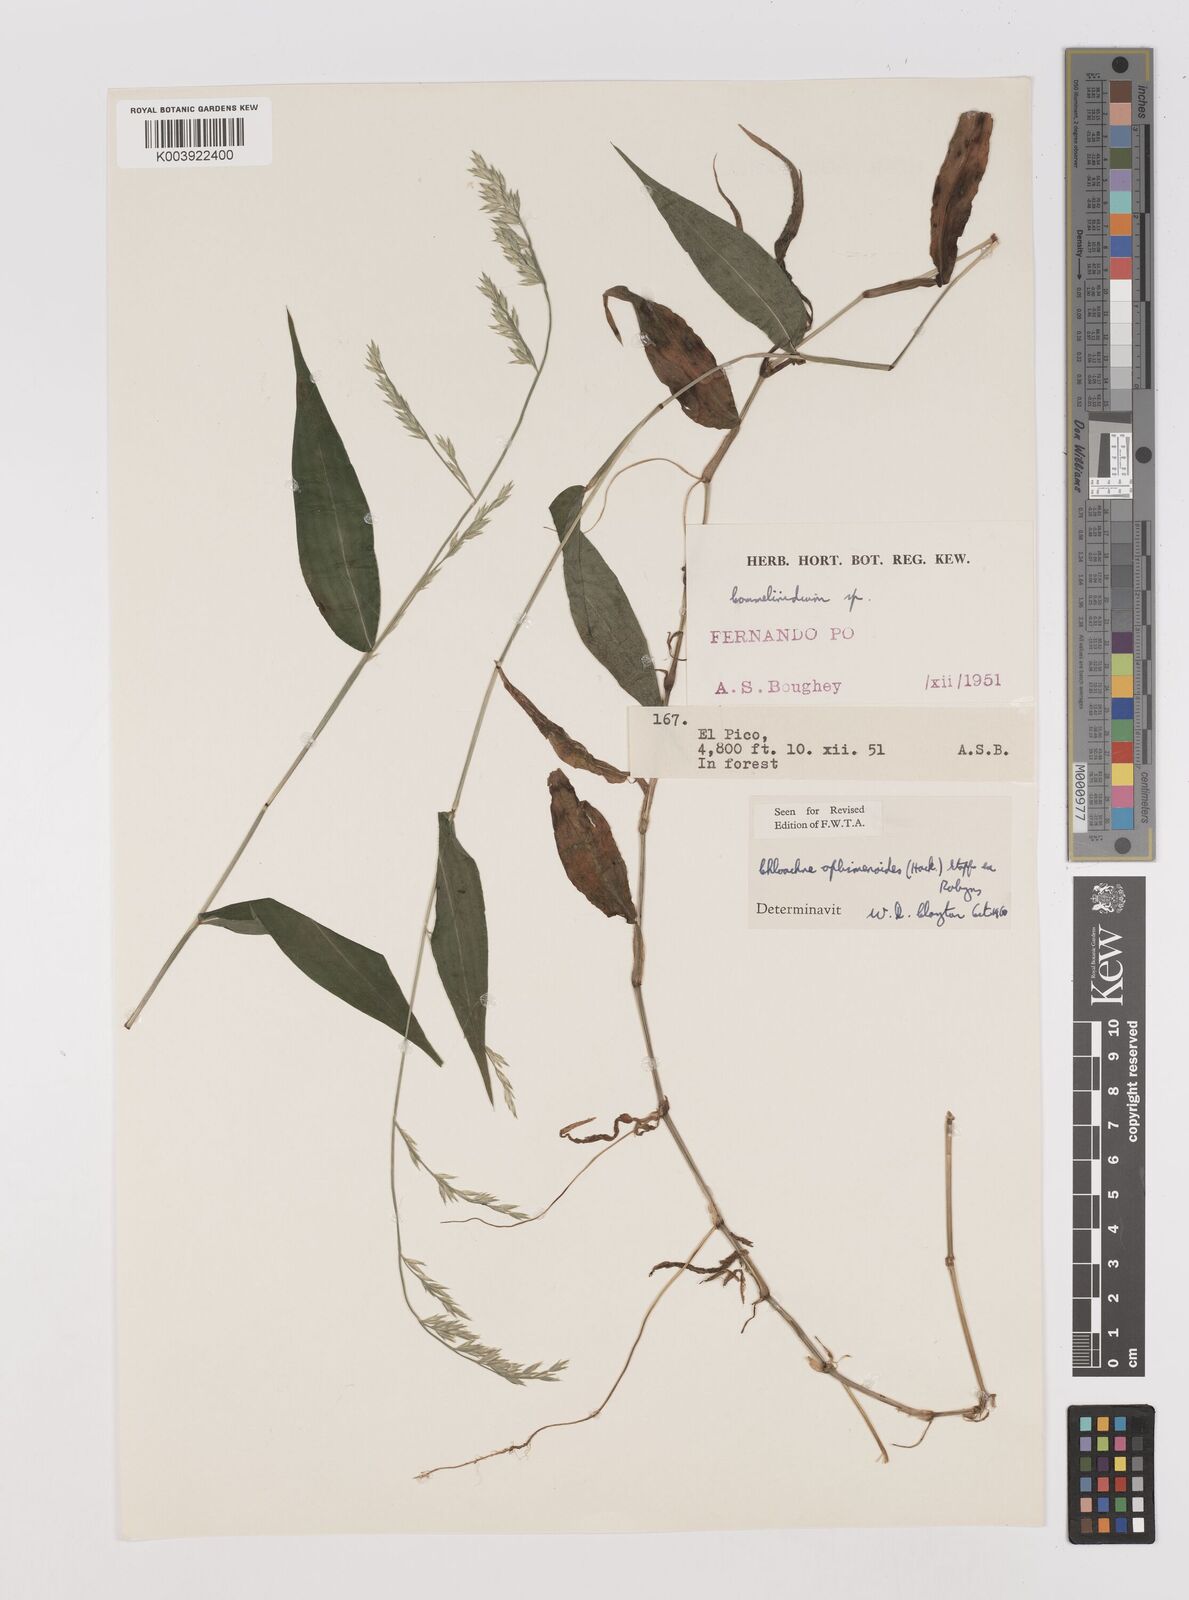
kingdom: Plantae
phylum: Tracheophyta
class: Liliopsida
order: Poales
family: Poaceae
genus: Poecilostachys
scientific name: Poecilostachys oplismenoides
